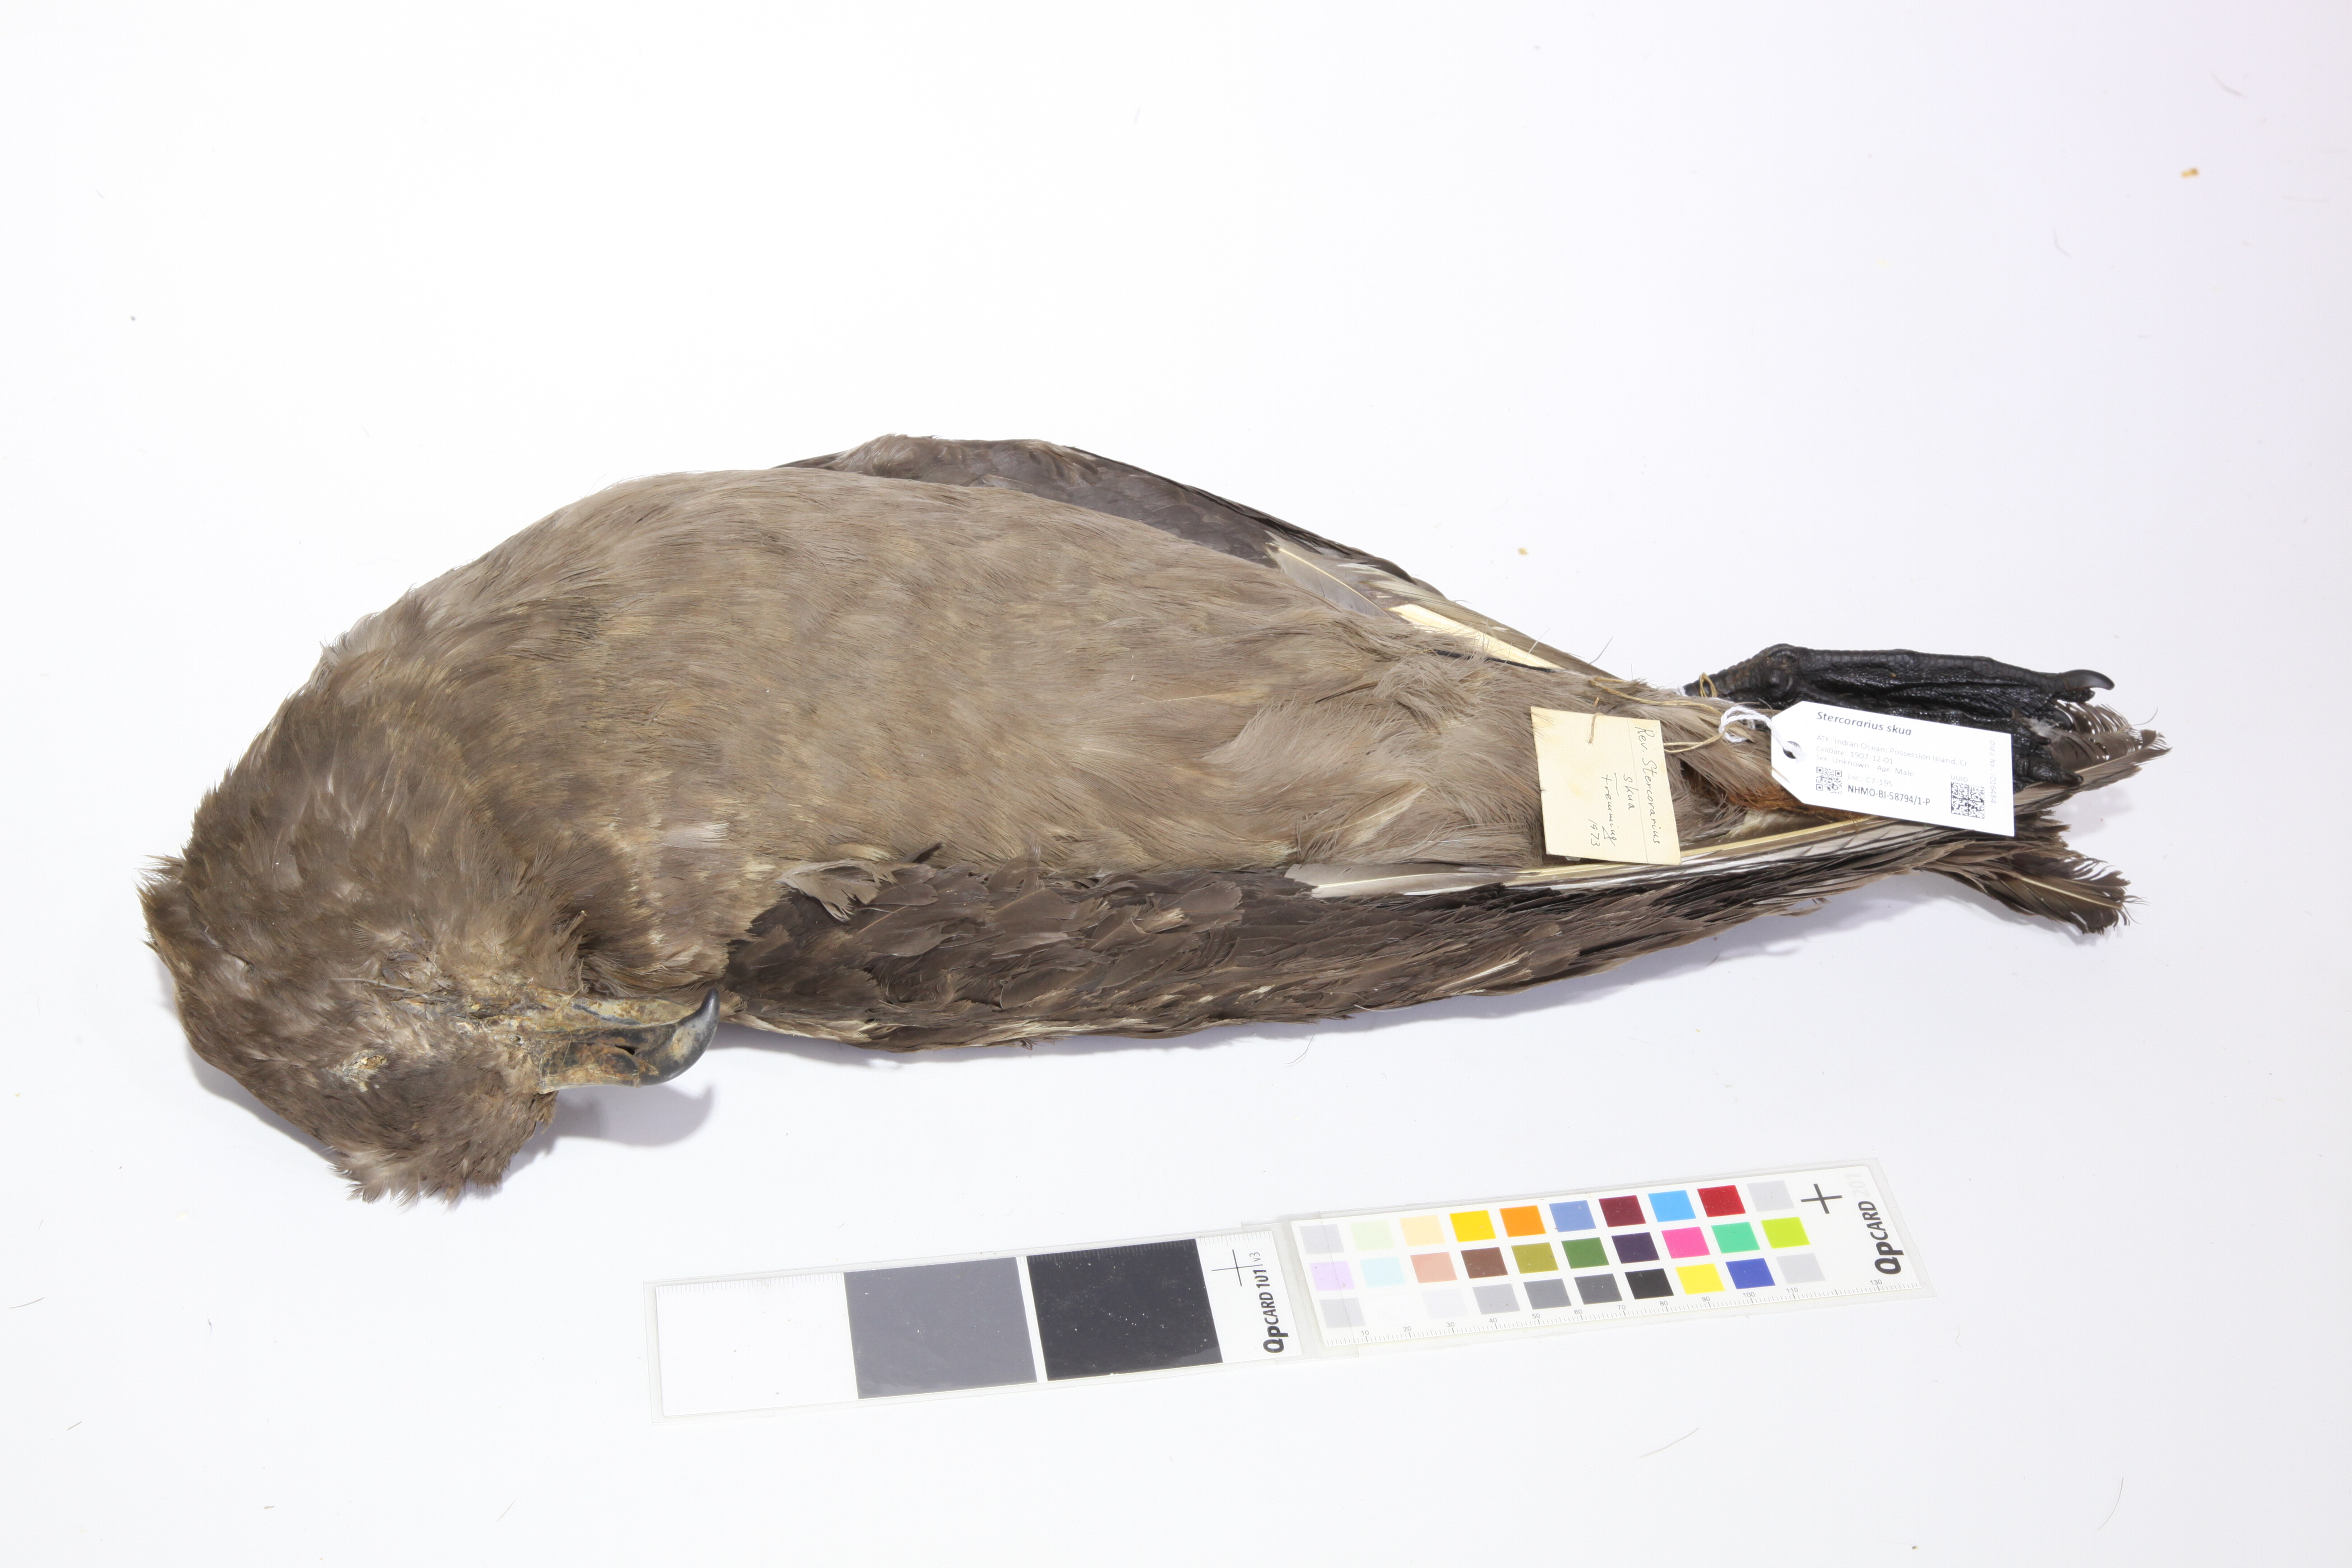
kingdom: Animalia
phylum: Chordata
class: Aves
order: Charadriiformes
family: Stercorariidae
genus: Stercorarius
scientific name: Stercorarius antarcticus
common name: Brown skua
